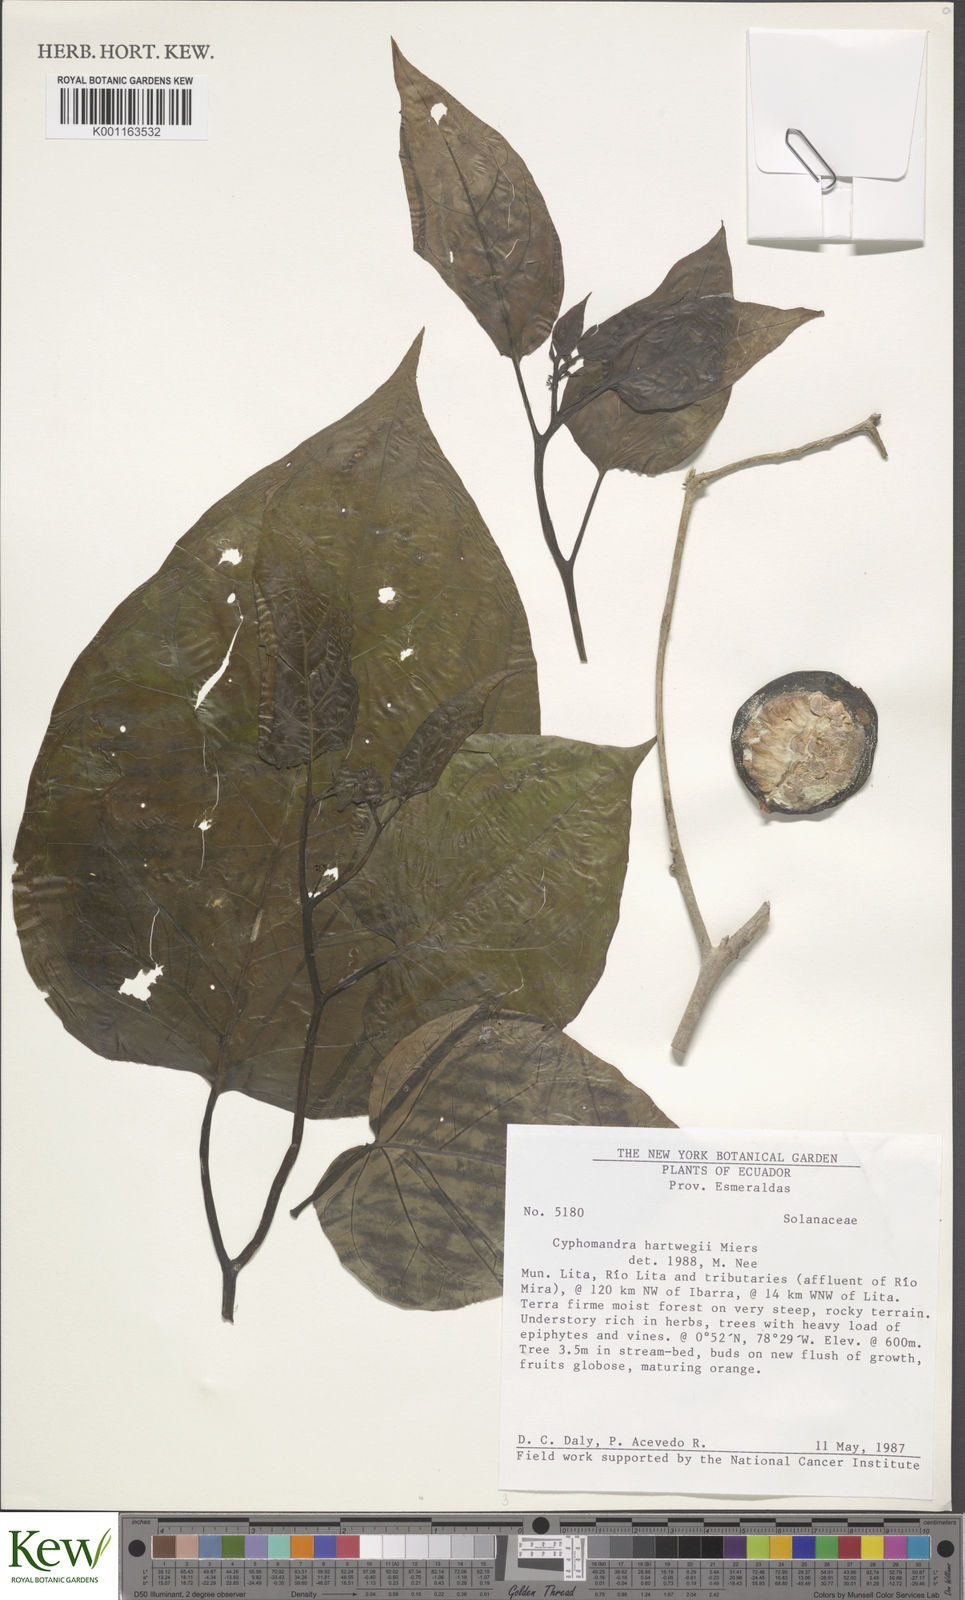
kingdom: Plantae
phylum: Tracheophyta
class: Magnoliopsida
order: Solanales
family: Solanaceae
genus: Solanum
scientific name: Solanum splendens
